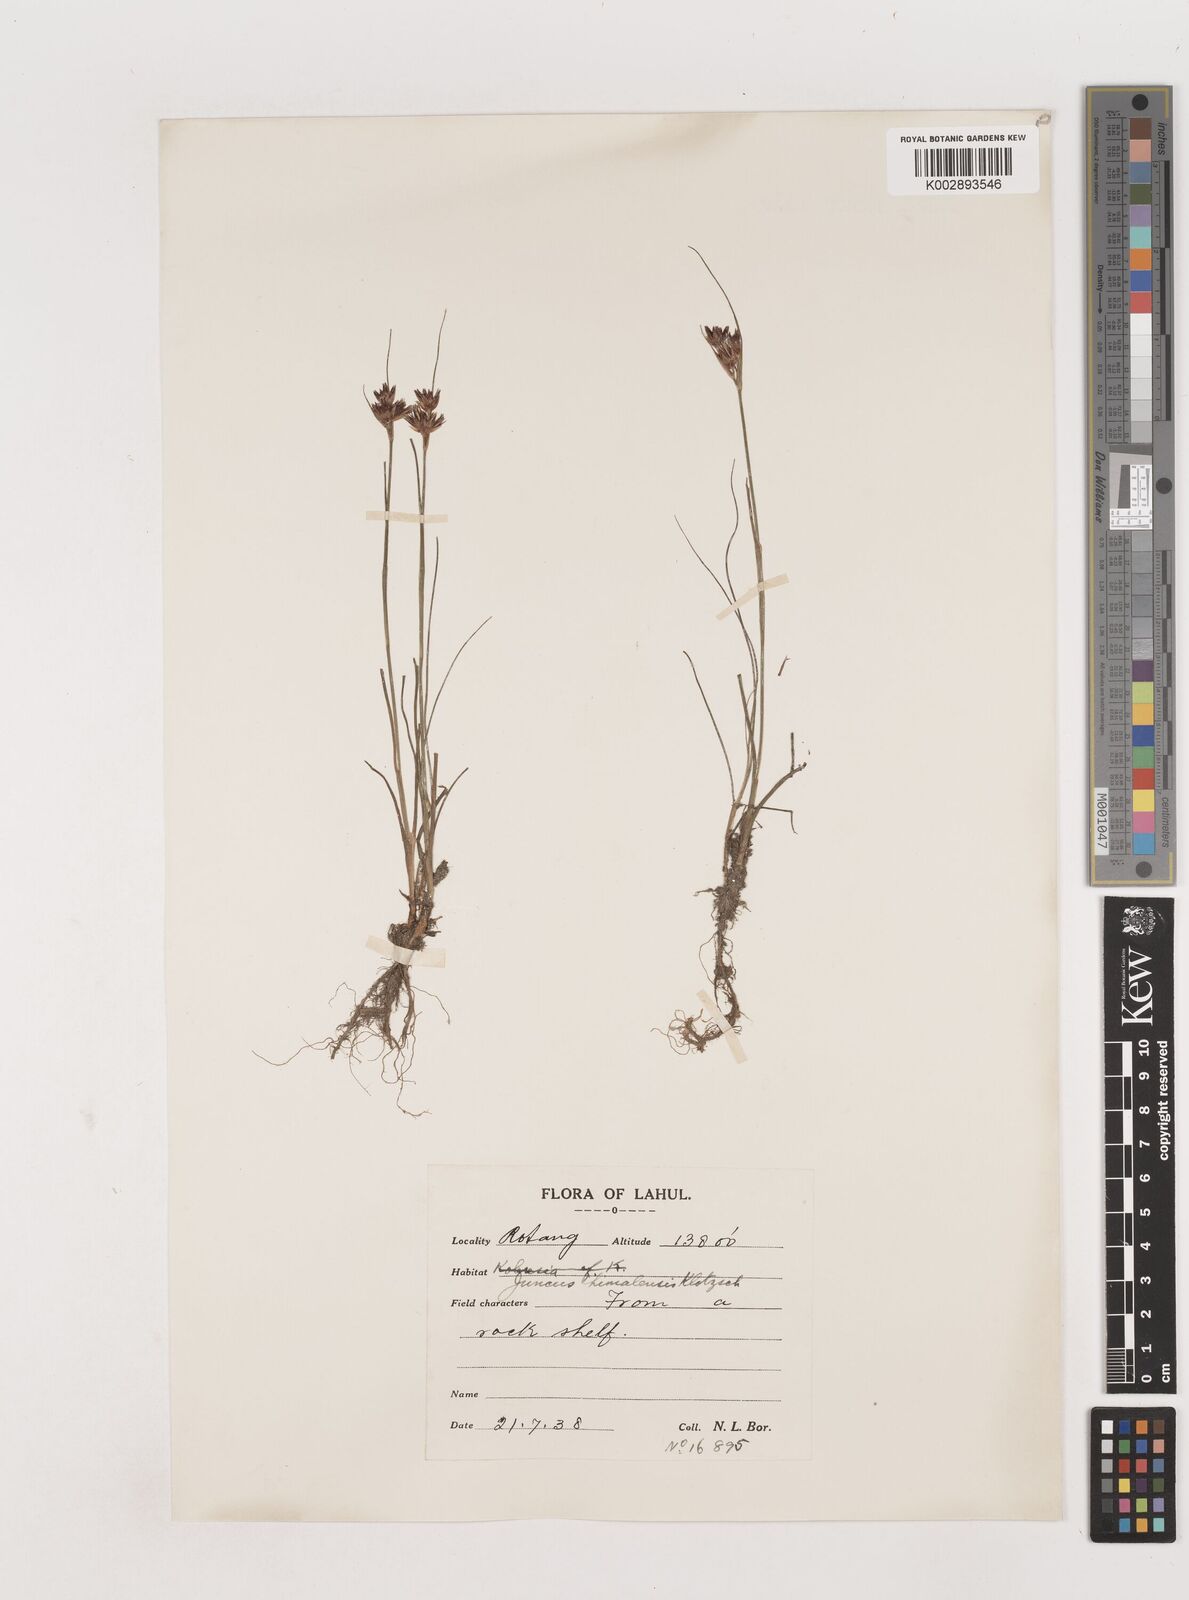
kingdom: Plantae
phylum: Tracheophyta
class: Liliopsida
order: Poales
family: Juncaceae
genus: Juncus
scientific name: Juncus himalensis
